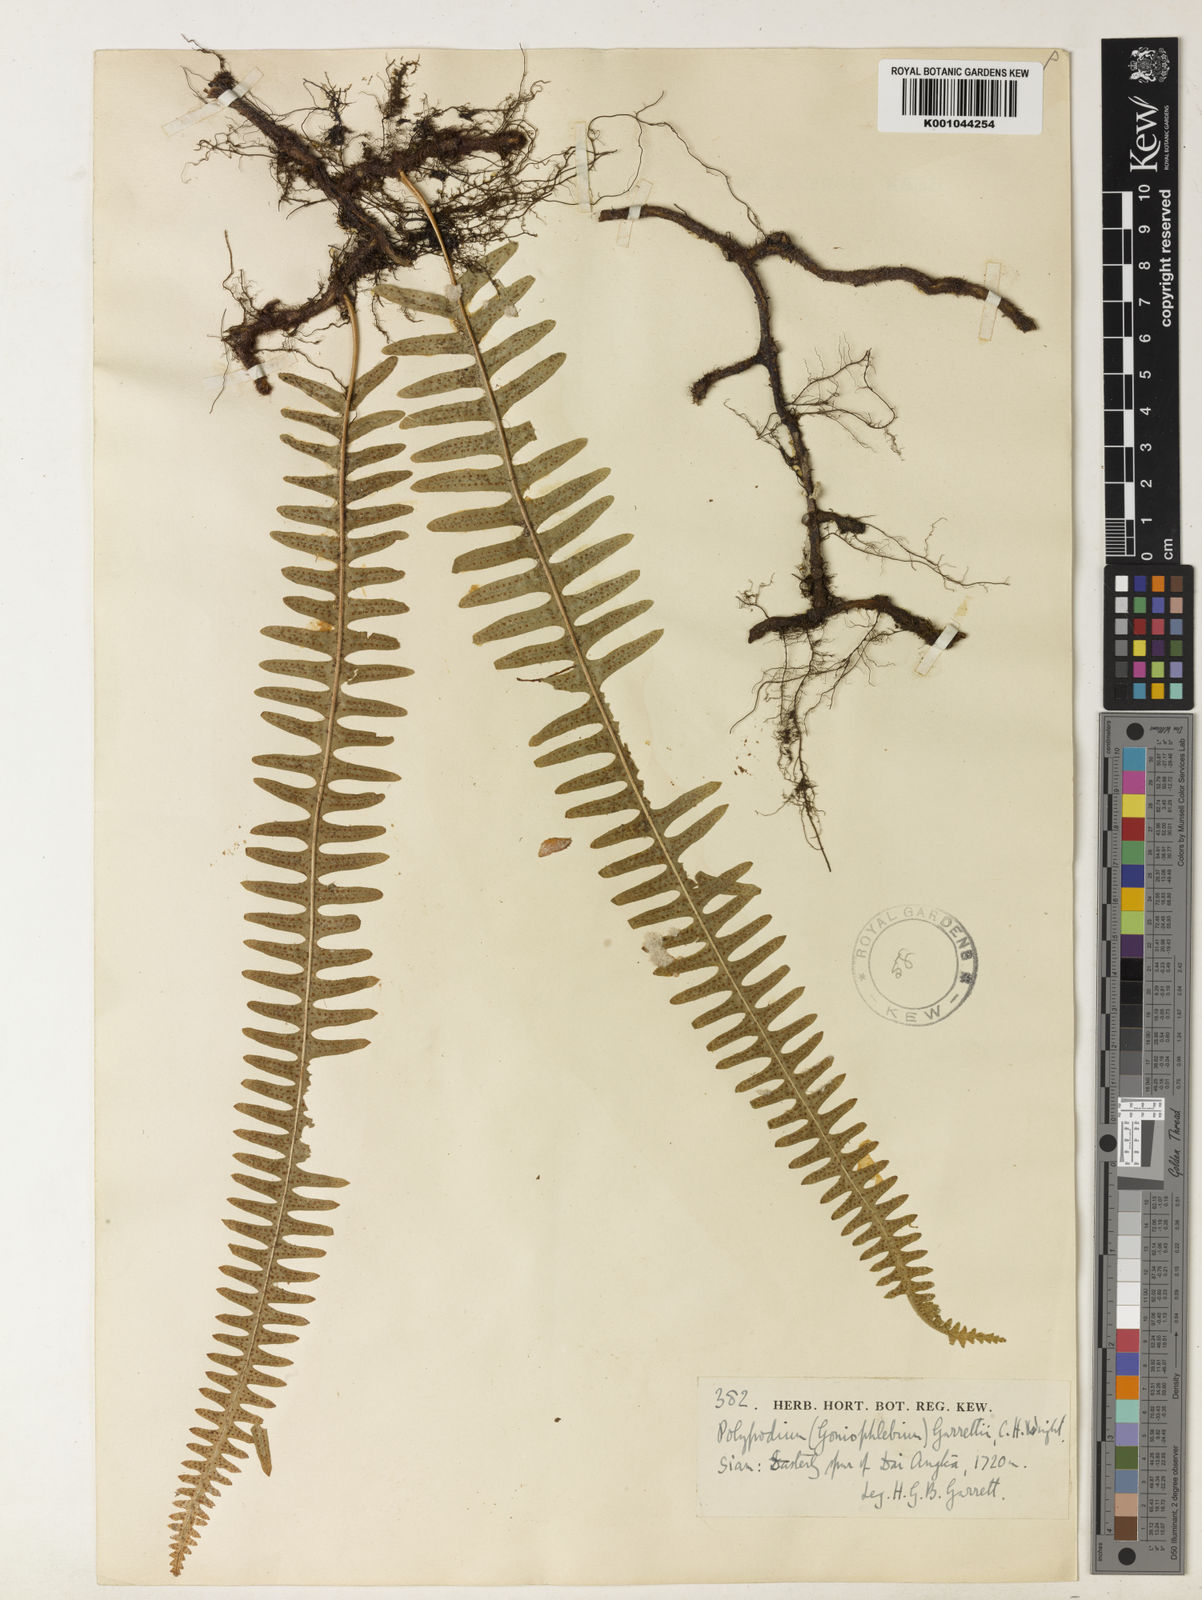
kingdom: Plantae
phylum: Tracheophyta
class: Polypodiopsida
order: Polypodiales
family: Polypodiaceae
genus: Goniophlebium
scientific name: Goniophlebium lachnopus
